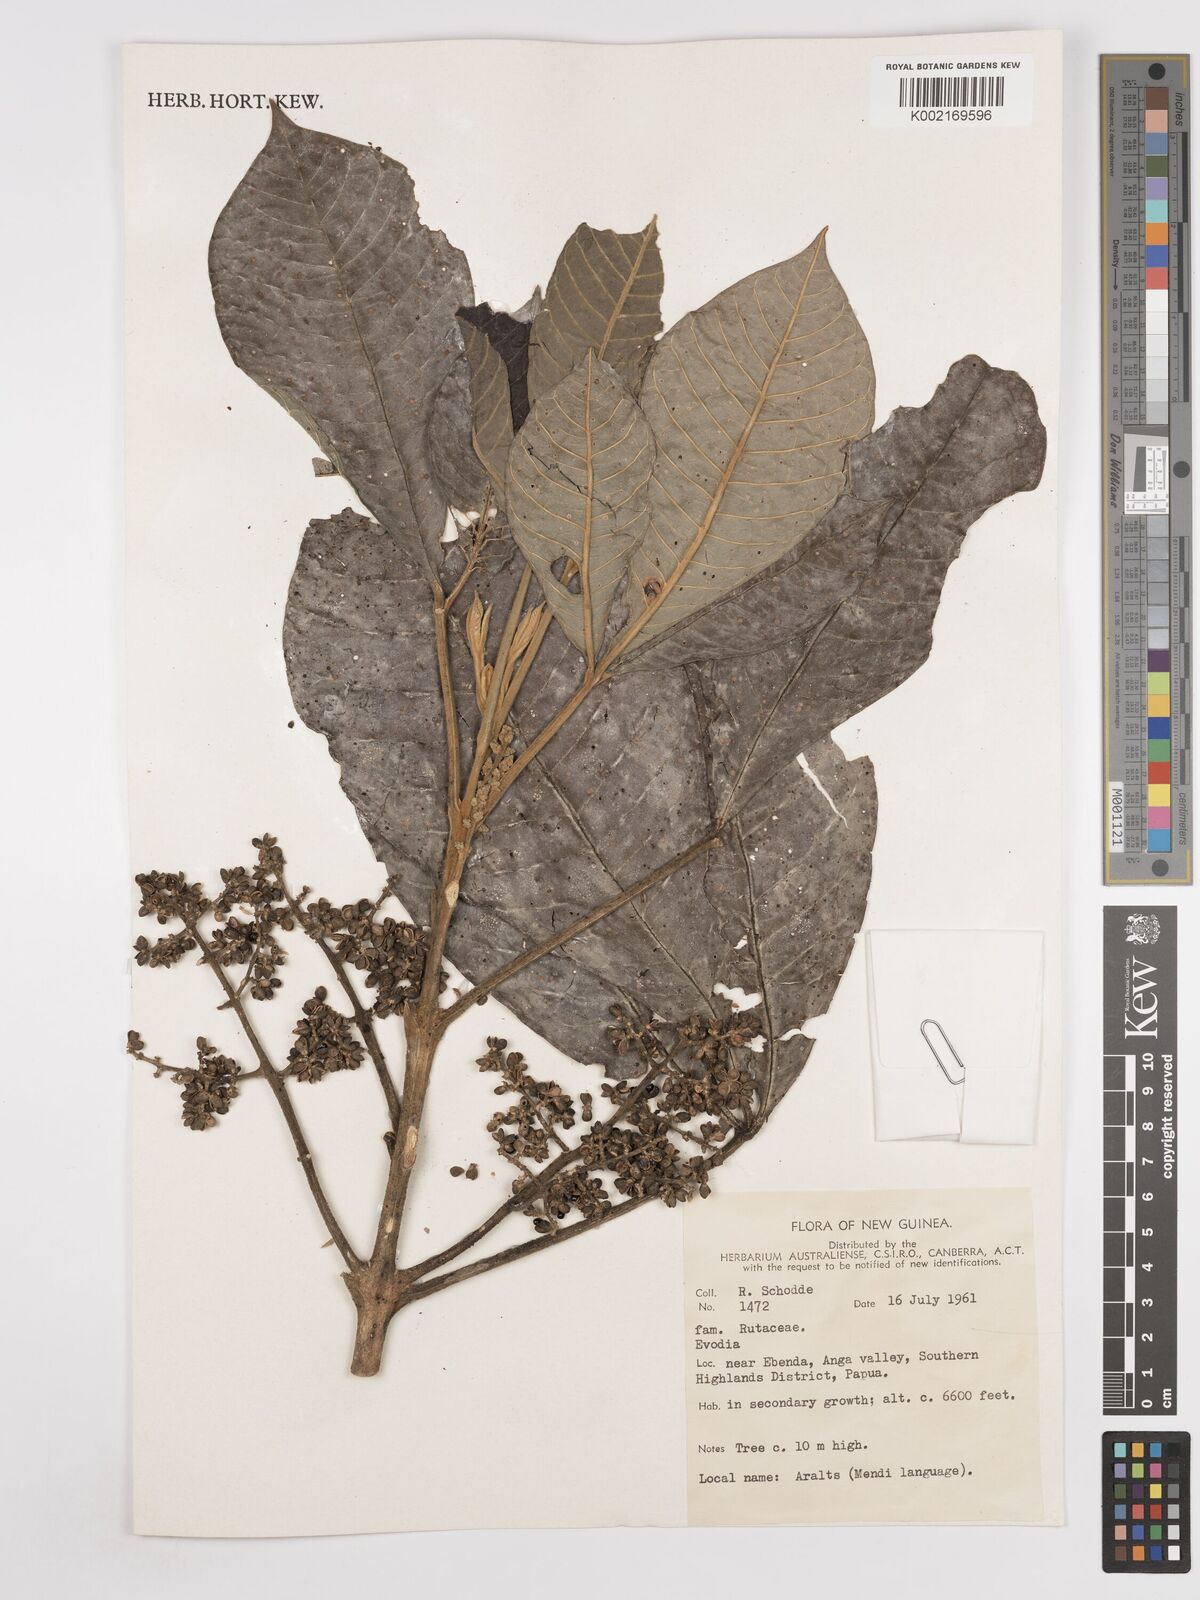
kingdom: Plantae
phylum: Tracheophyta
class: Magnoliopsida
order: Sapindales
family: Rutaceae
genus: Euodia
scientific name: Euodia
